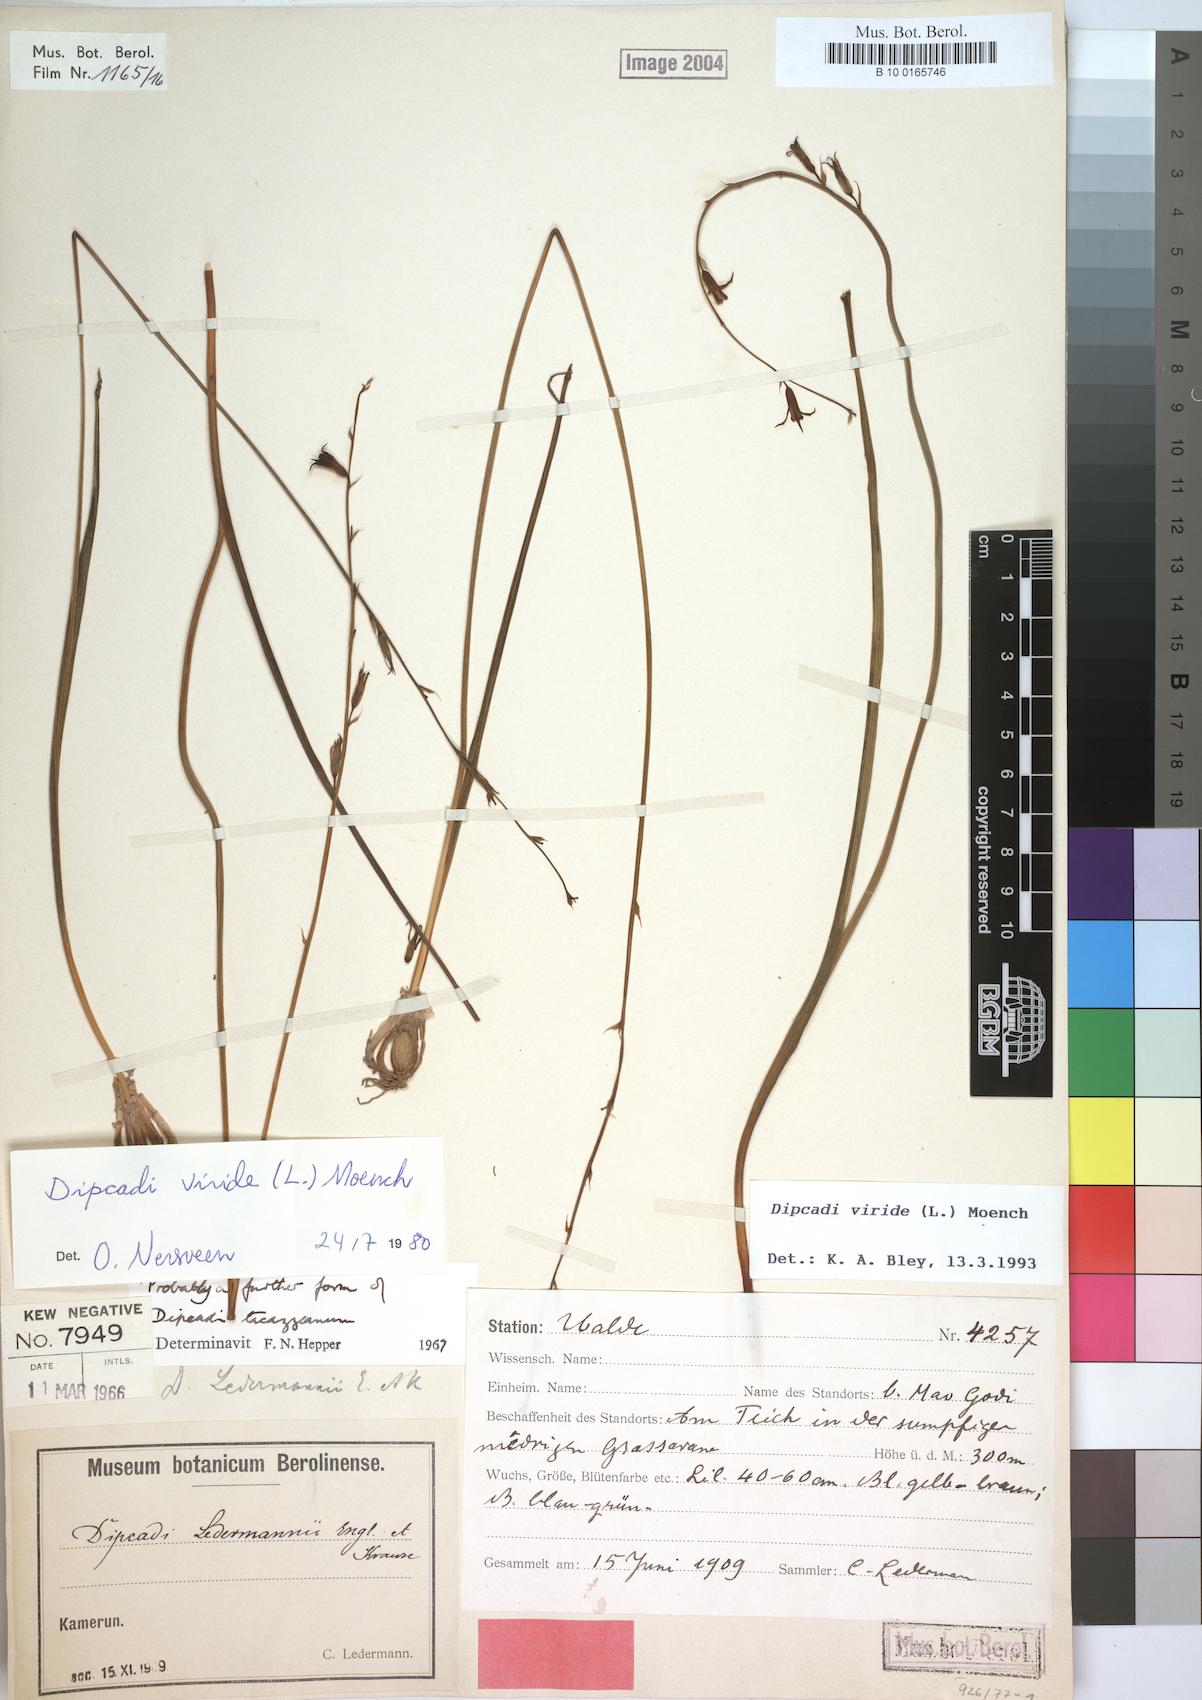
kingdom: Plantae
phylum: Tracheophyta
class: Liliopsida
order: Asparagales
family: Asparagaceae
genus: Dipcadi
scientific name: Dipcadi viride
